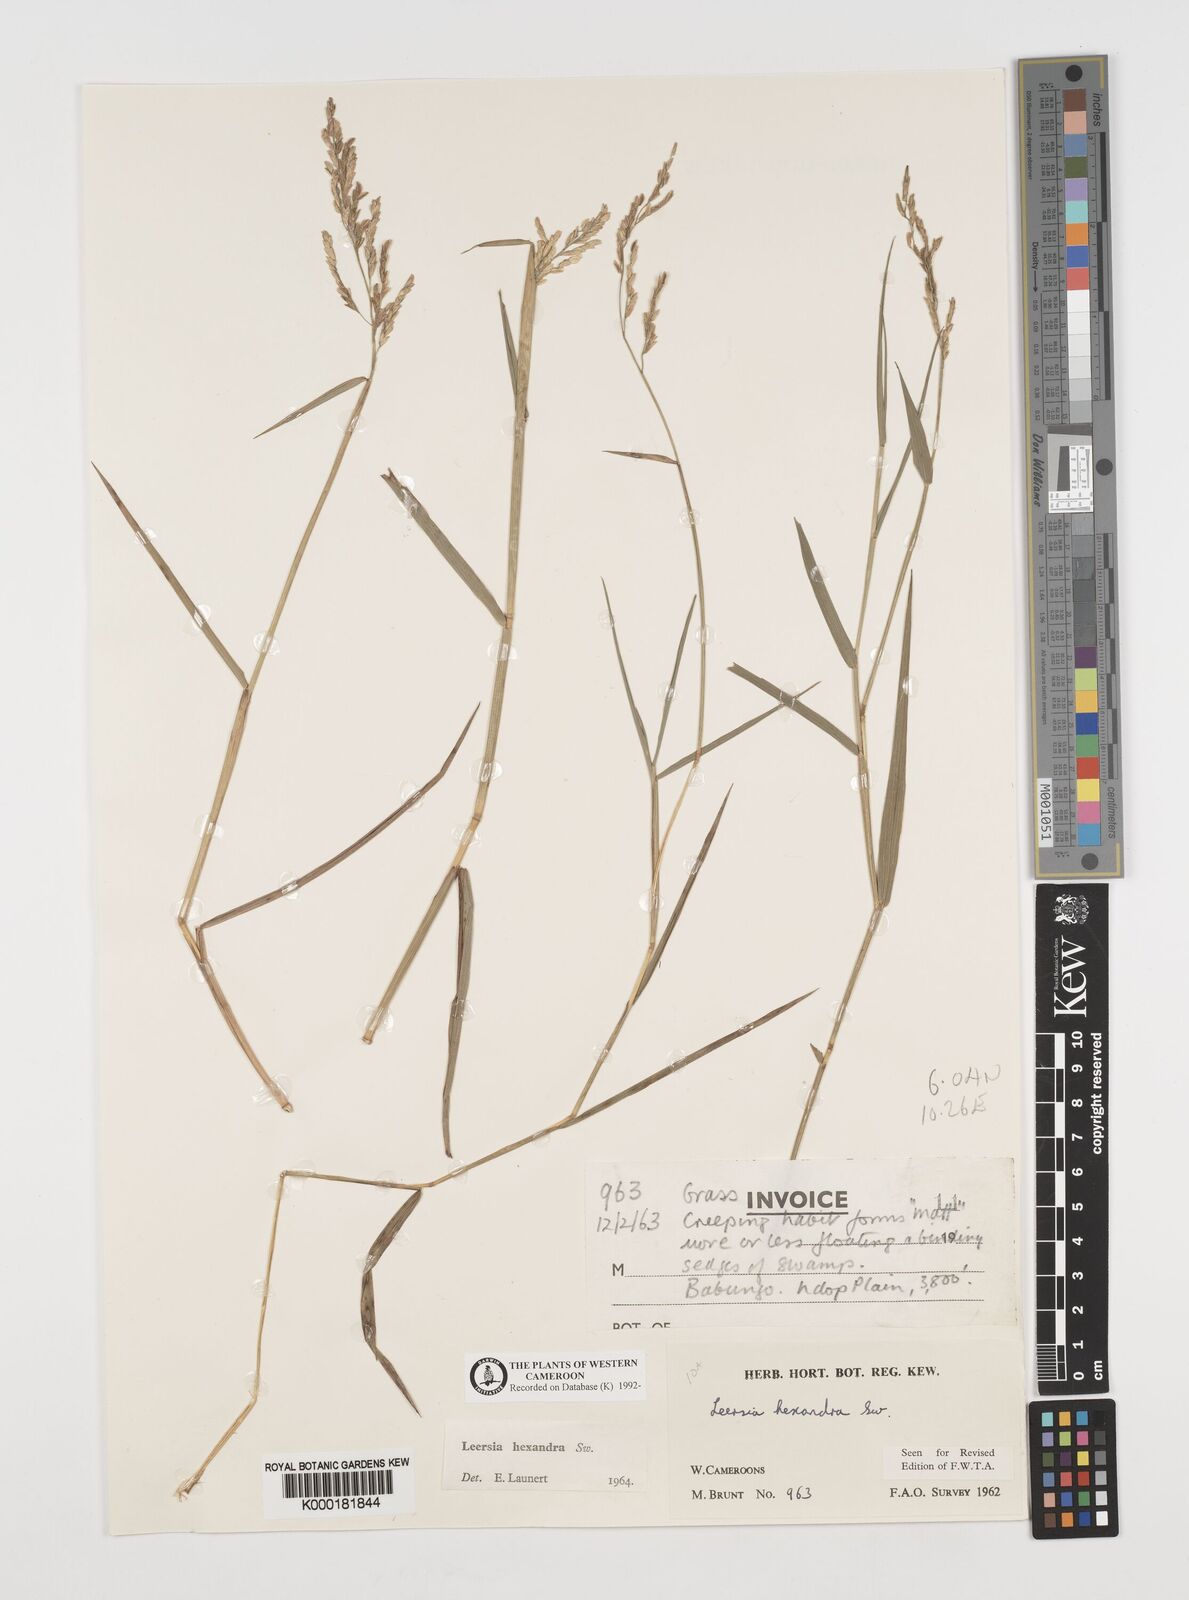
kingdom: Plantae
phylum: Tracheophyta
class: Liliopsida
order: Poales
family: Poaceae
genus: Leersia
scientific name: Leersia hexandra
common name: Southern cut grass
